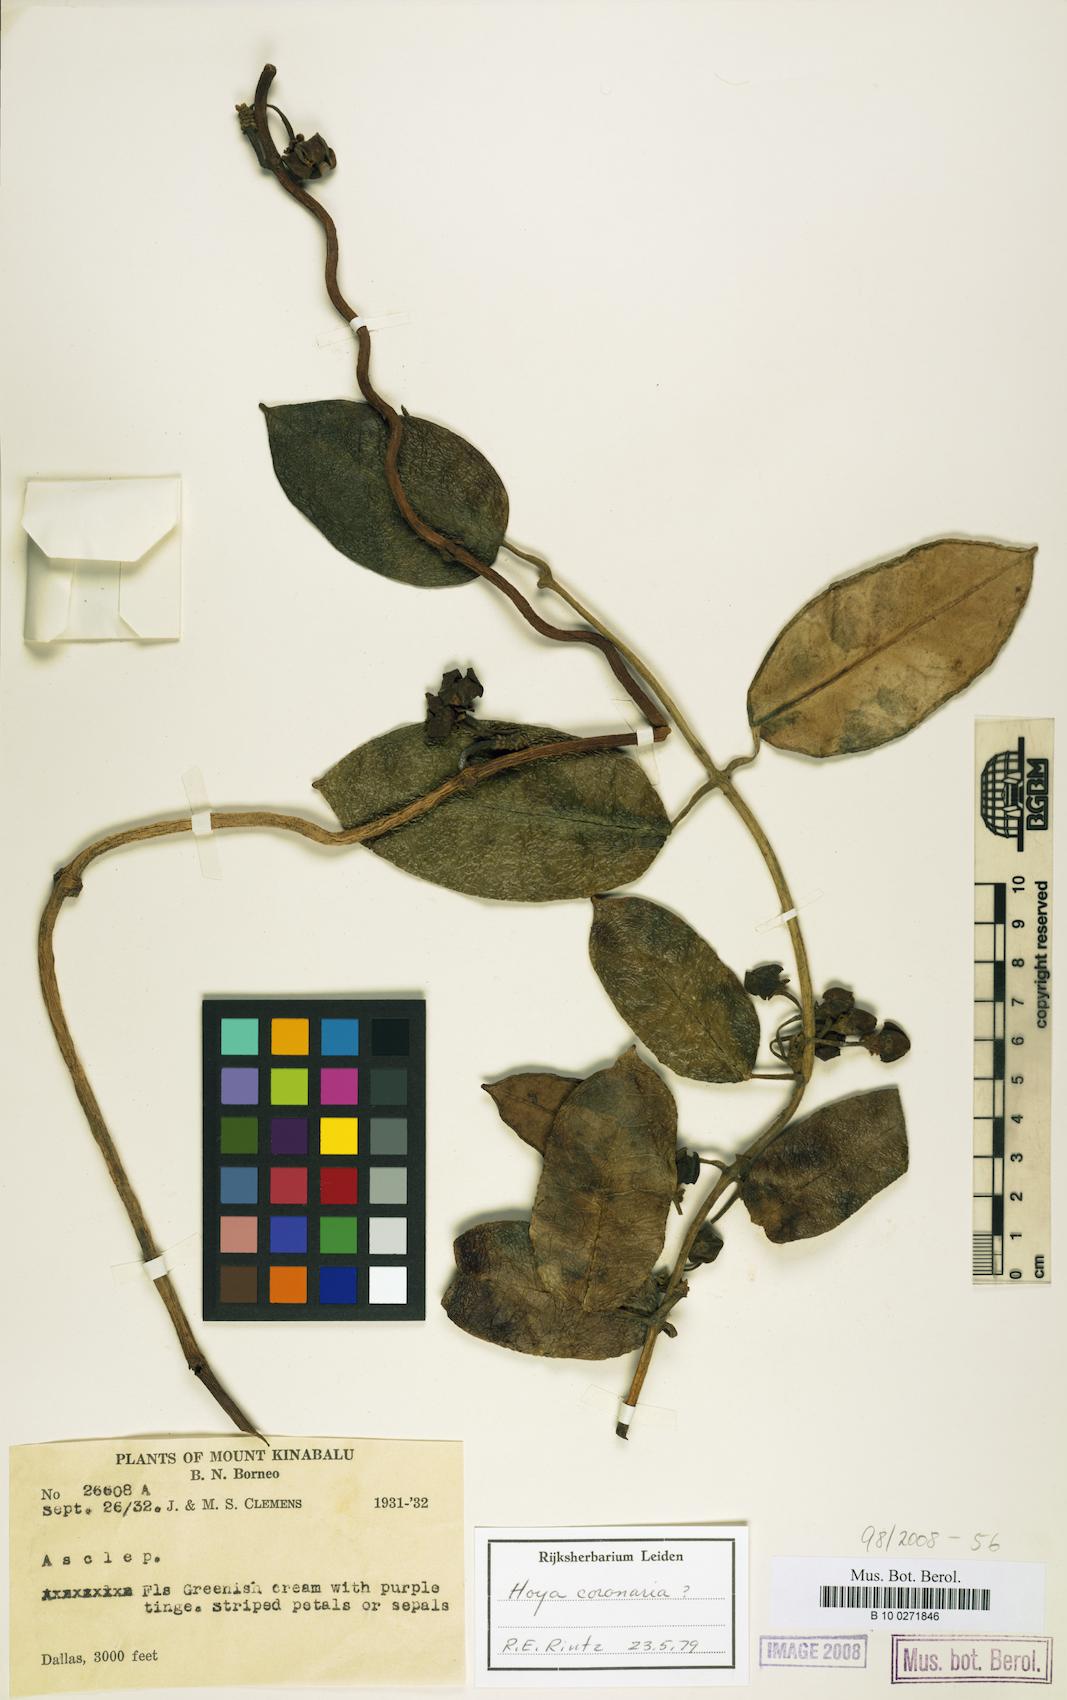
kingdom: Plantae
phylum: Tracheophyta
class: Magnoliopsida
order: Gentianales
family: Apocynaceae
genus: Eriostemma
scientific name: Eriostemma coronaria
